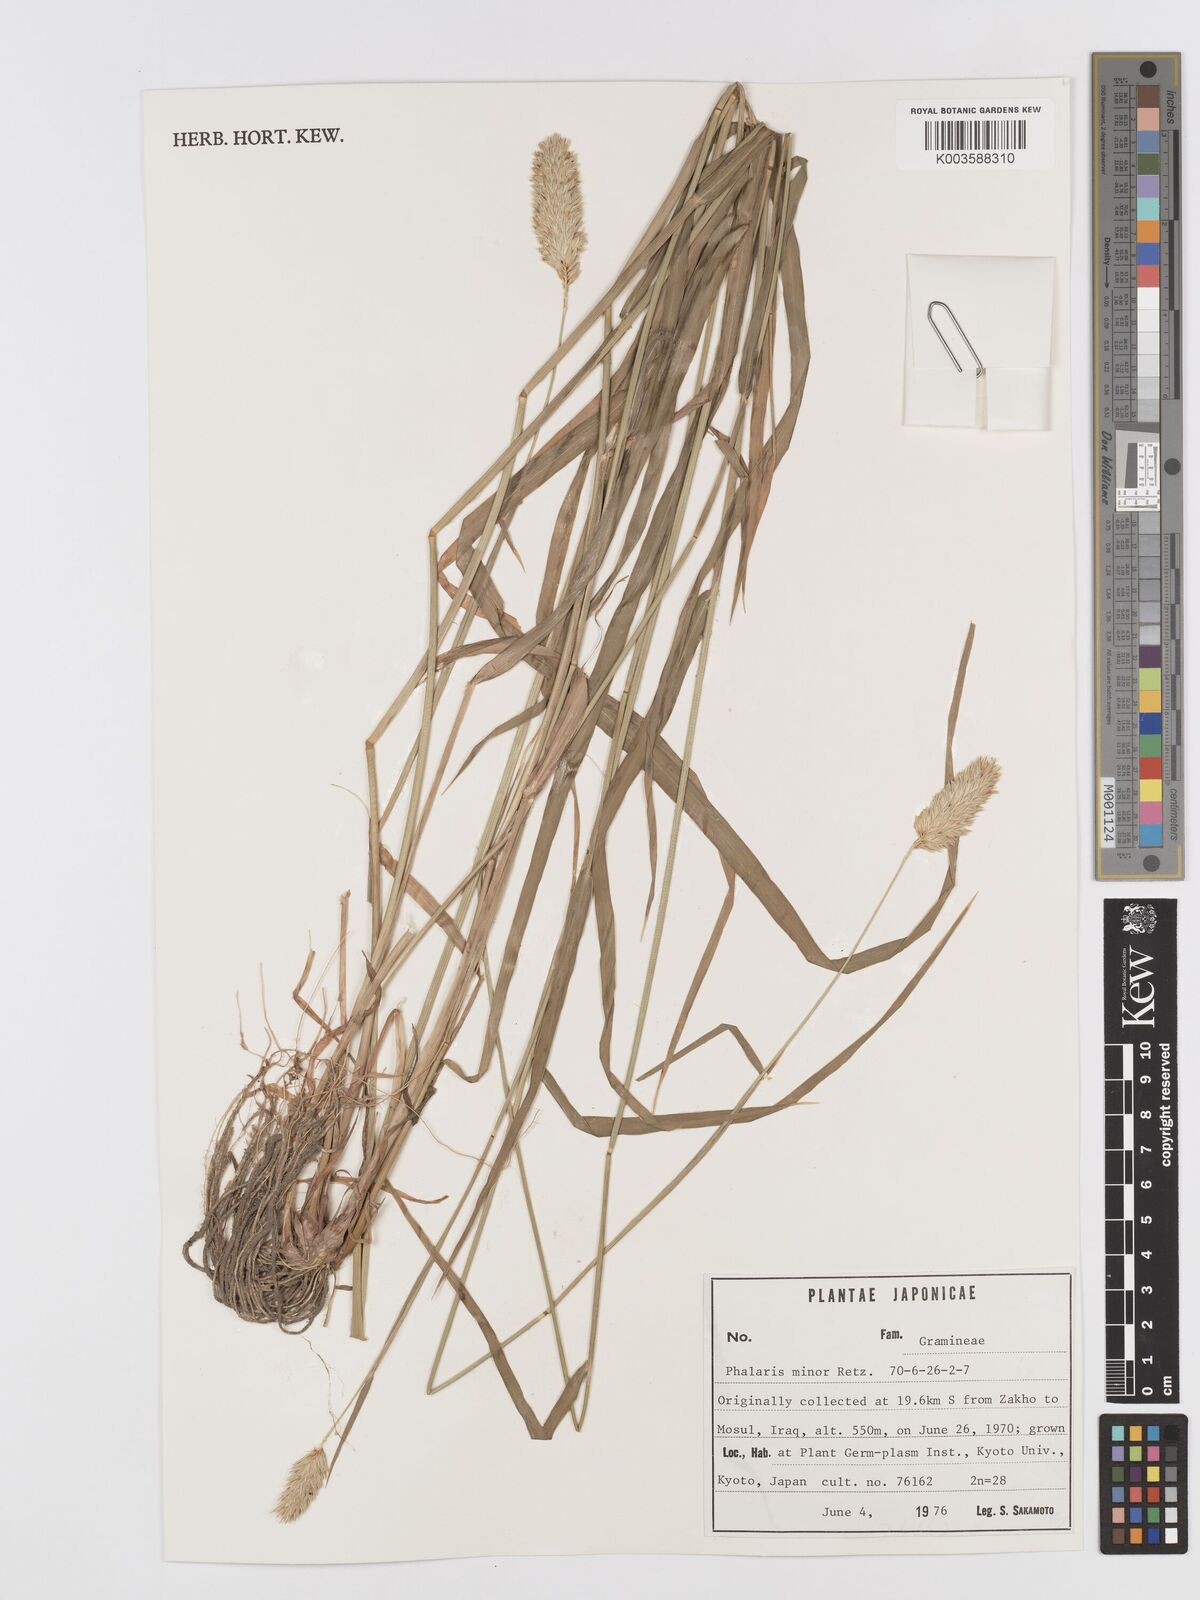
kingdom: Plantae
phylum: Tracheophyta
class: Liliopsida
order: Poales
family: Poaceae
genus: Phalaris
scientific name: Phalaris minor
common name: Littleseed canarygrass
